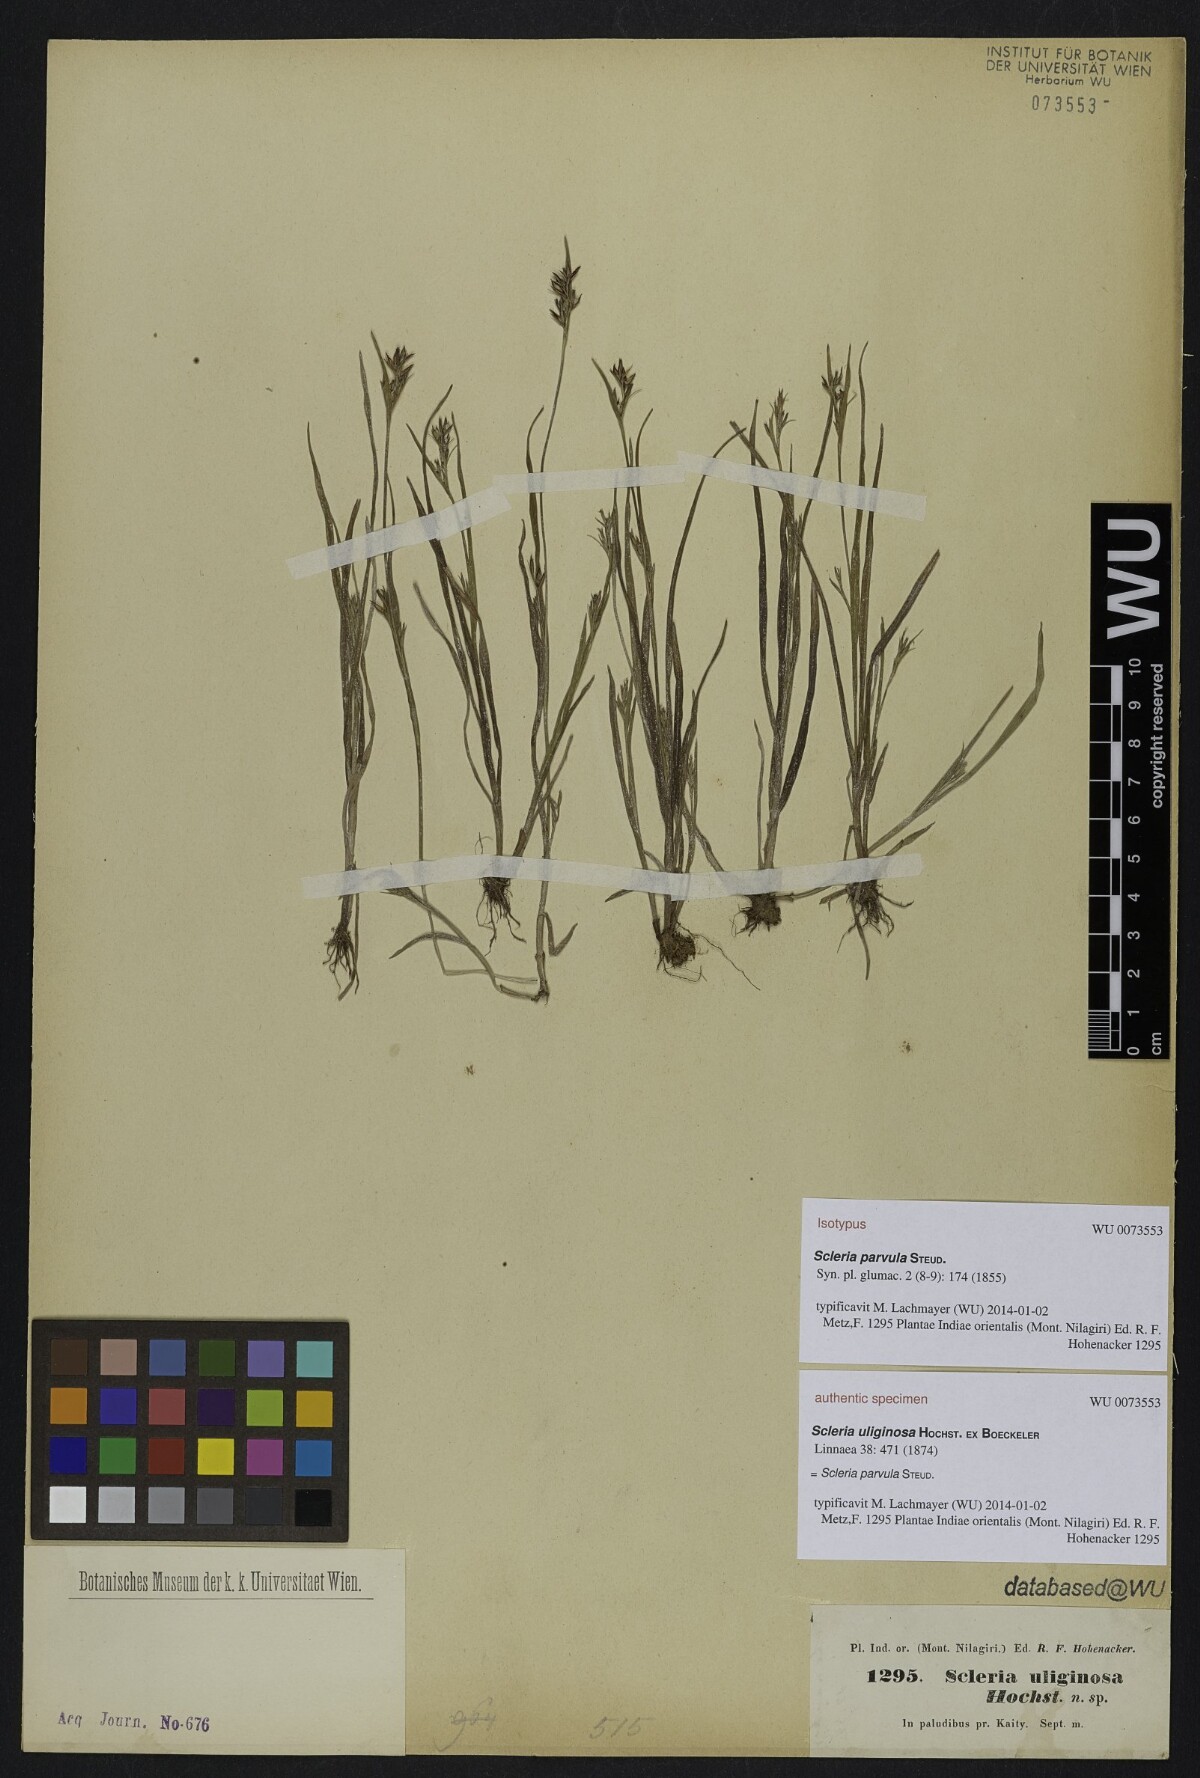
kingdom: Plantae
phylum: Tracheophyta
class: Liliopsida
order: Poales
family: Cyperaceae
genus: Scleria
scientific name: Scleria parvula
